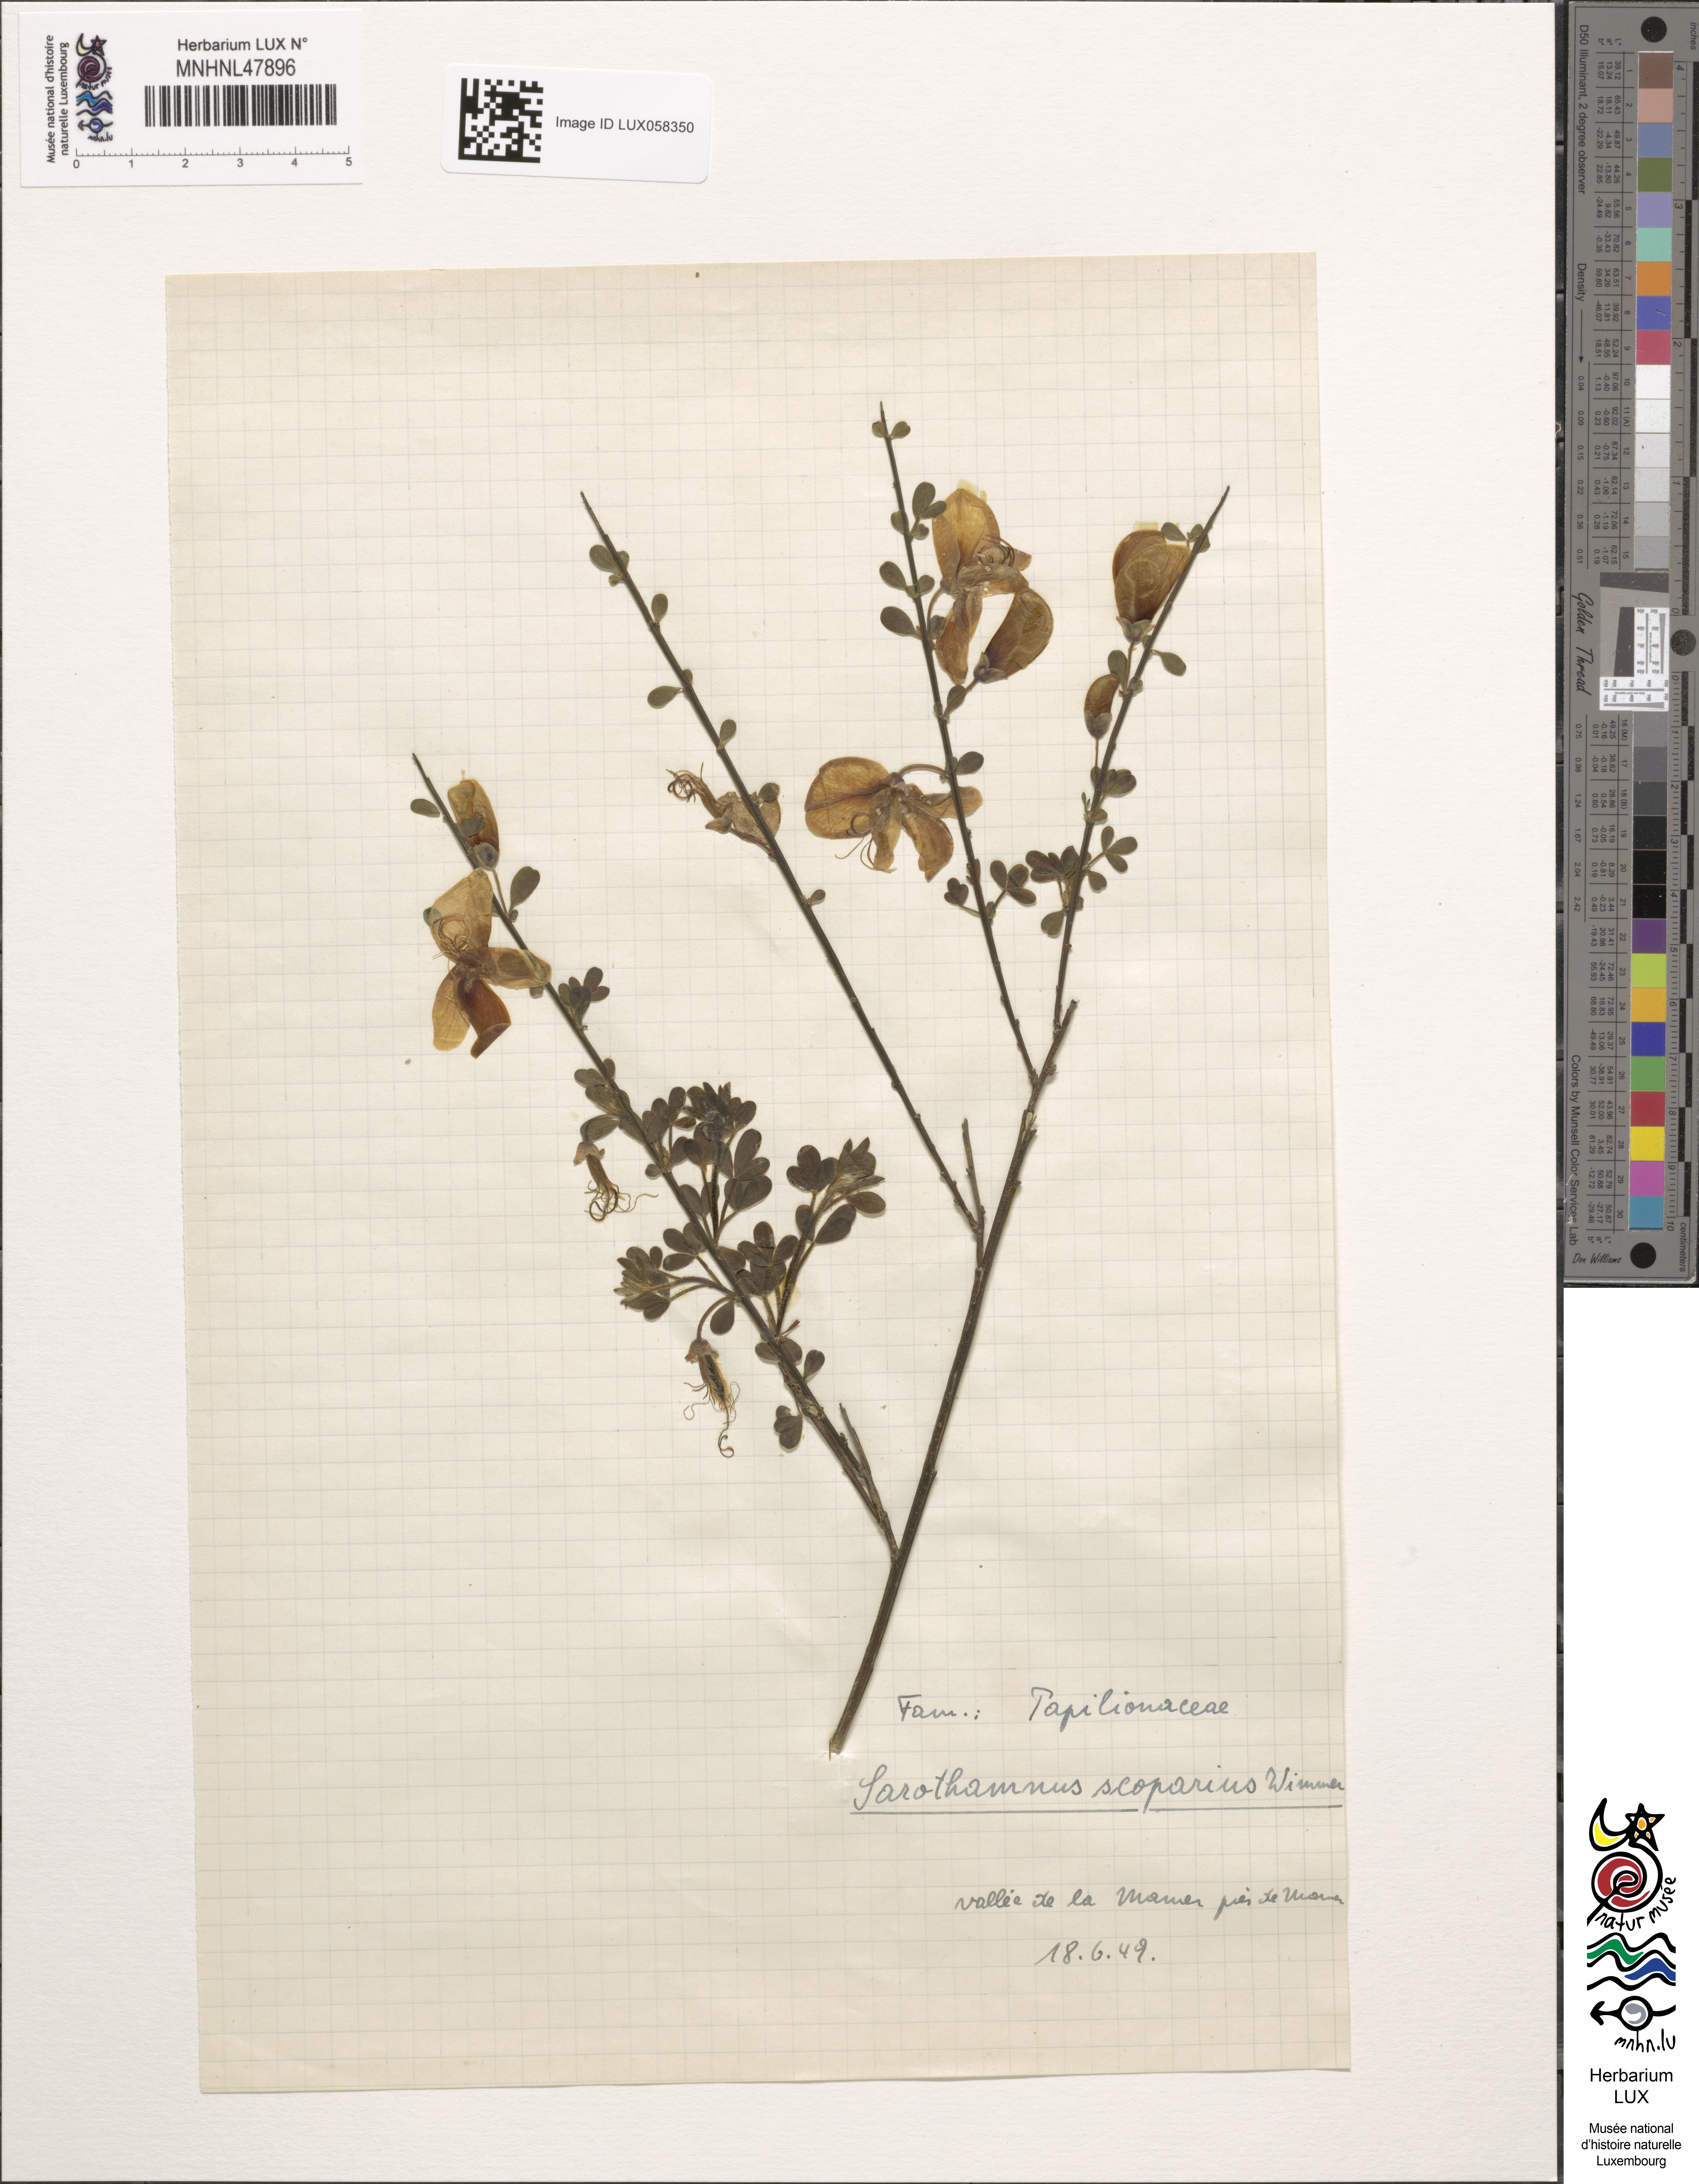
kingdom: Plantae
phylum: Tracheophyta
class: Magnoliopsida
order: Fabales
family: Fabaceae
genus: Cytisus
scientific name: Cytisus scoparius
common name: Scotch broom
